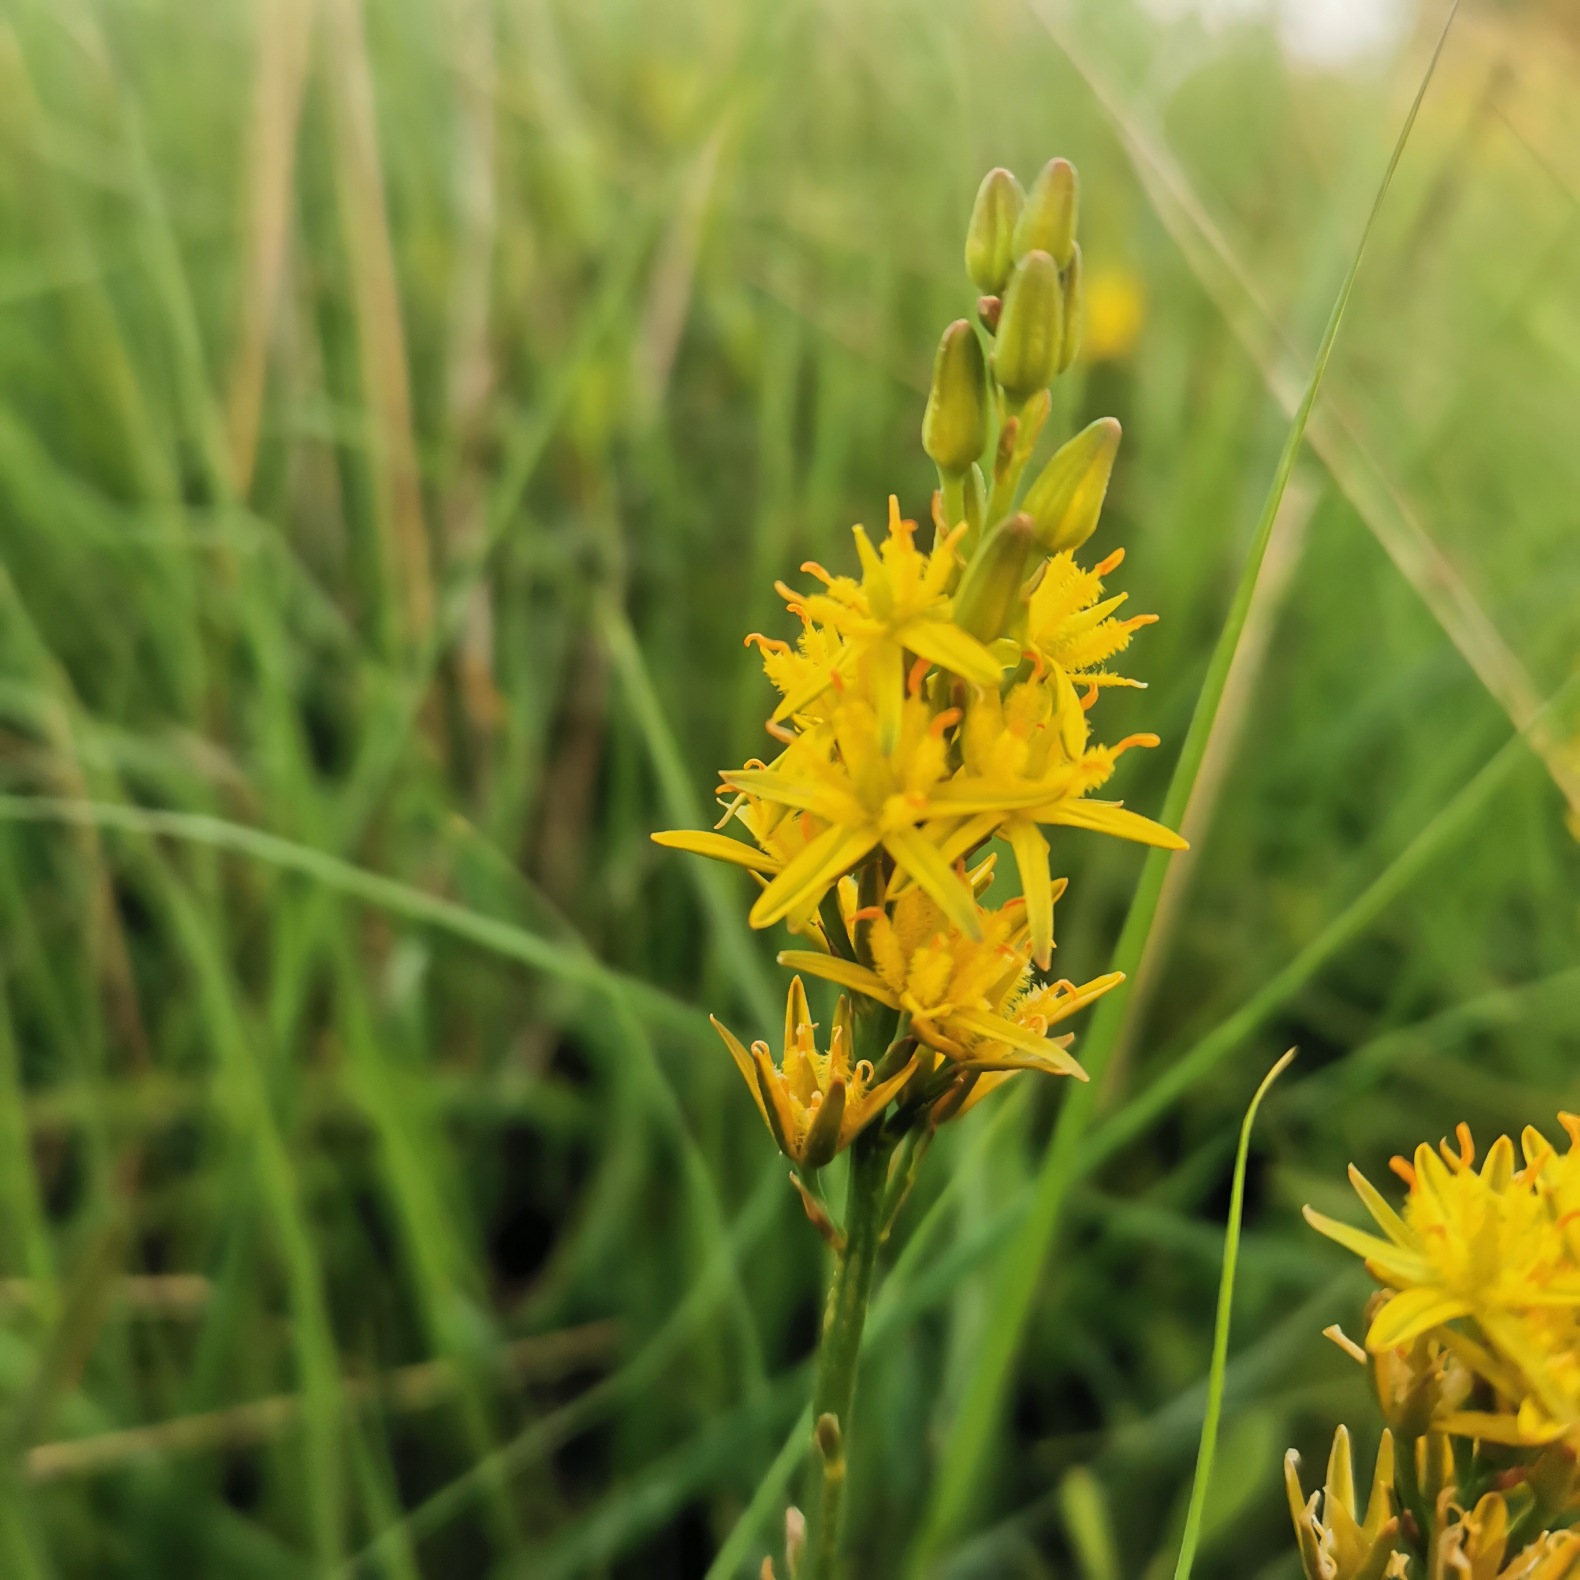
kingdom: Plantae
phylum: Tracheophyta
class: Liliopsida
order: Dioscoreales
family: Nartheciaceae
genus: Narthecium
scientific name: Narthecium ossifragum
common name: Benbræk
